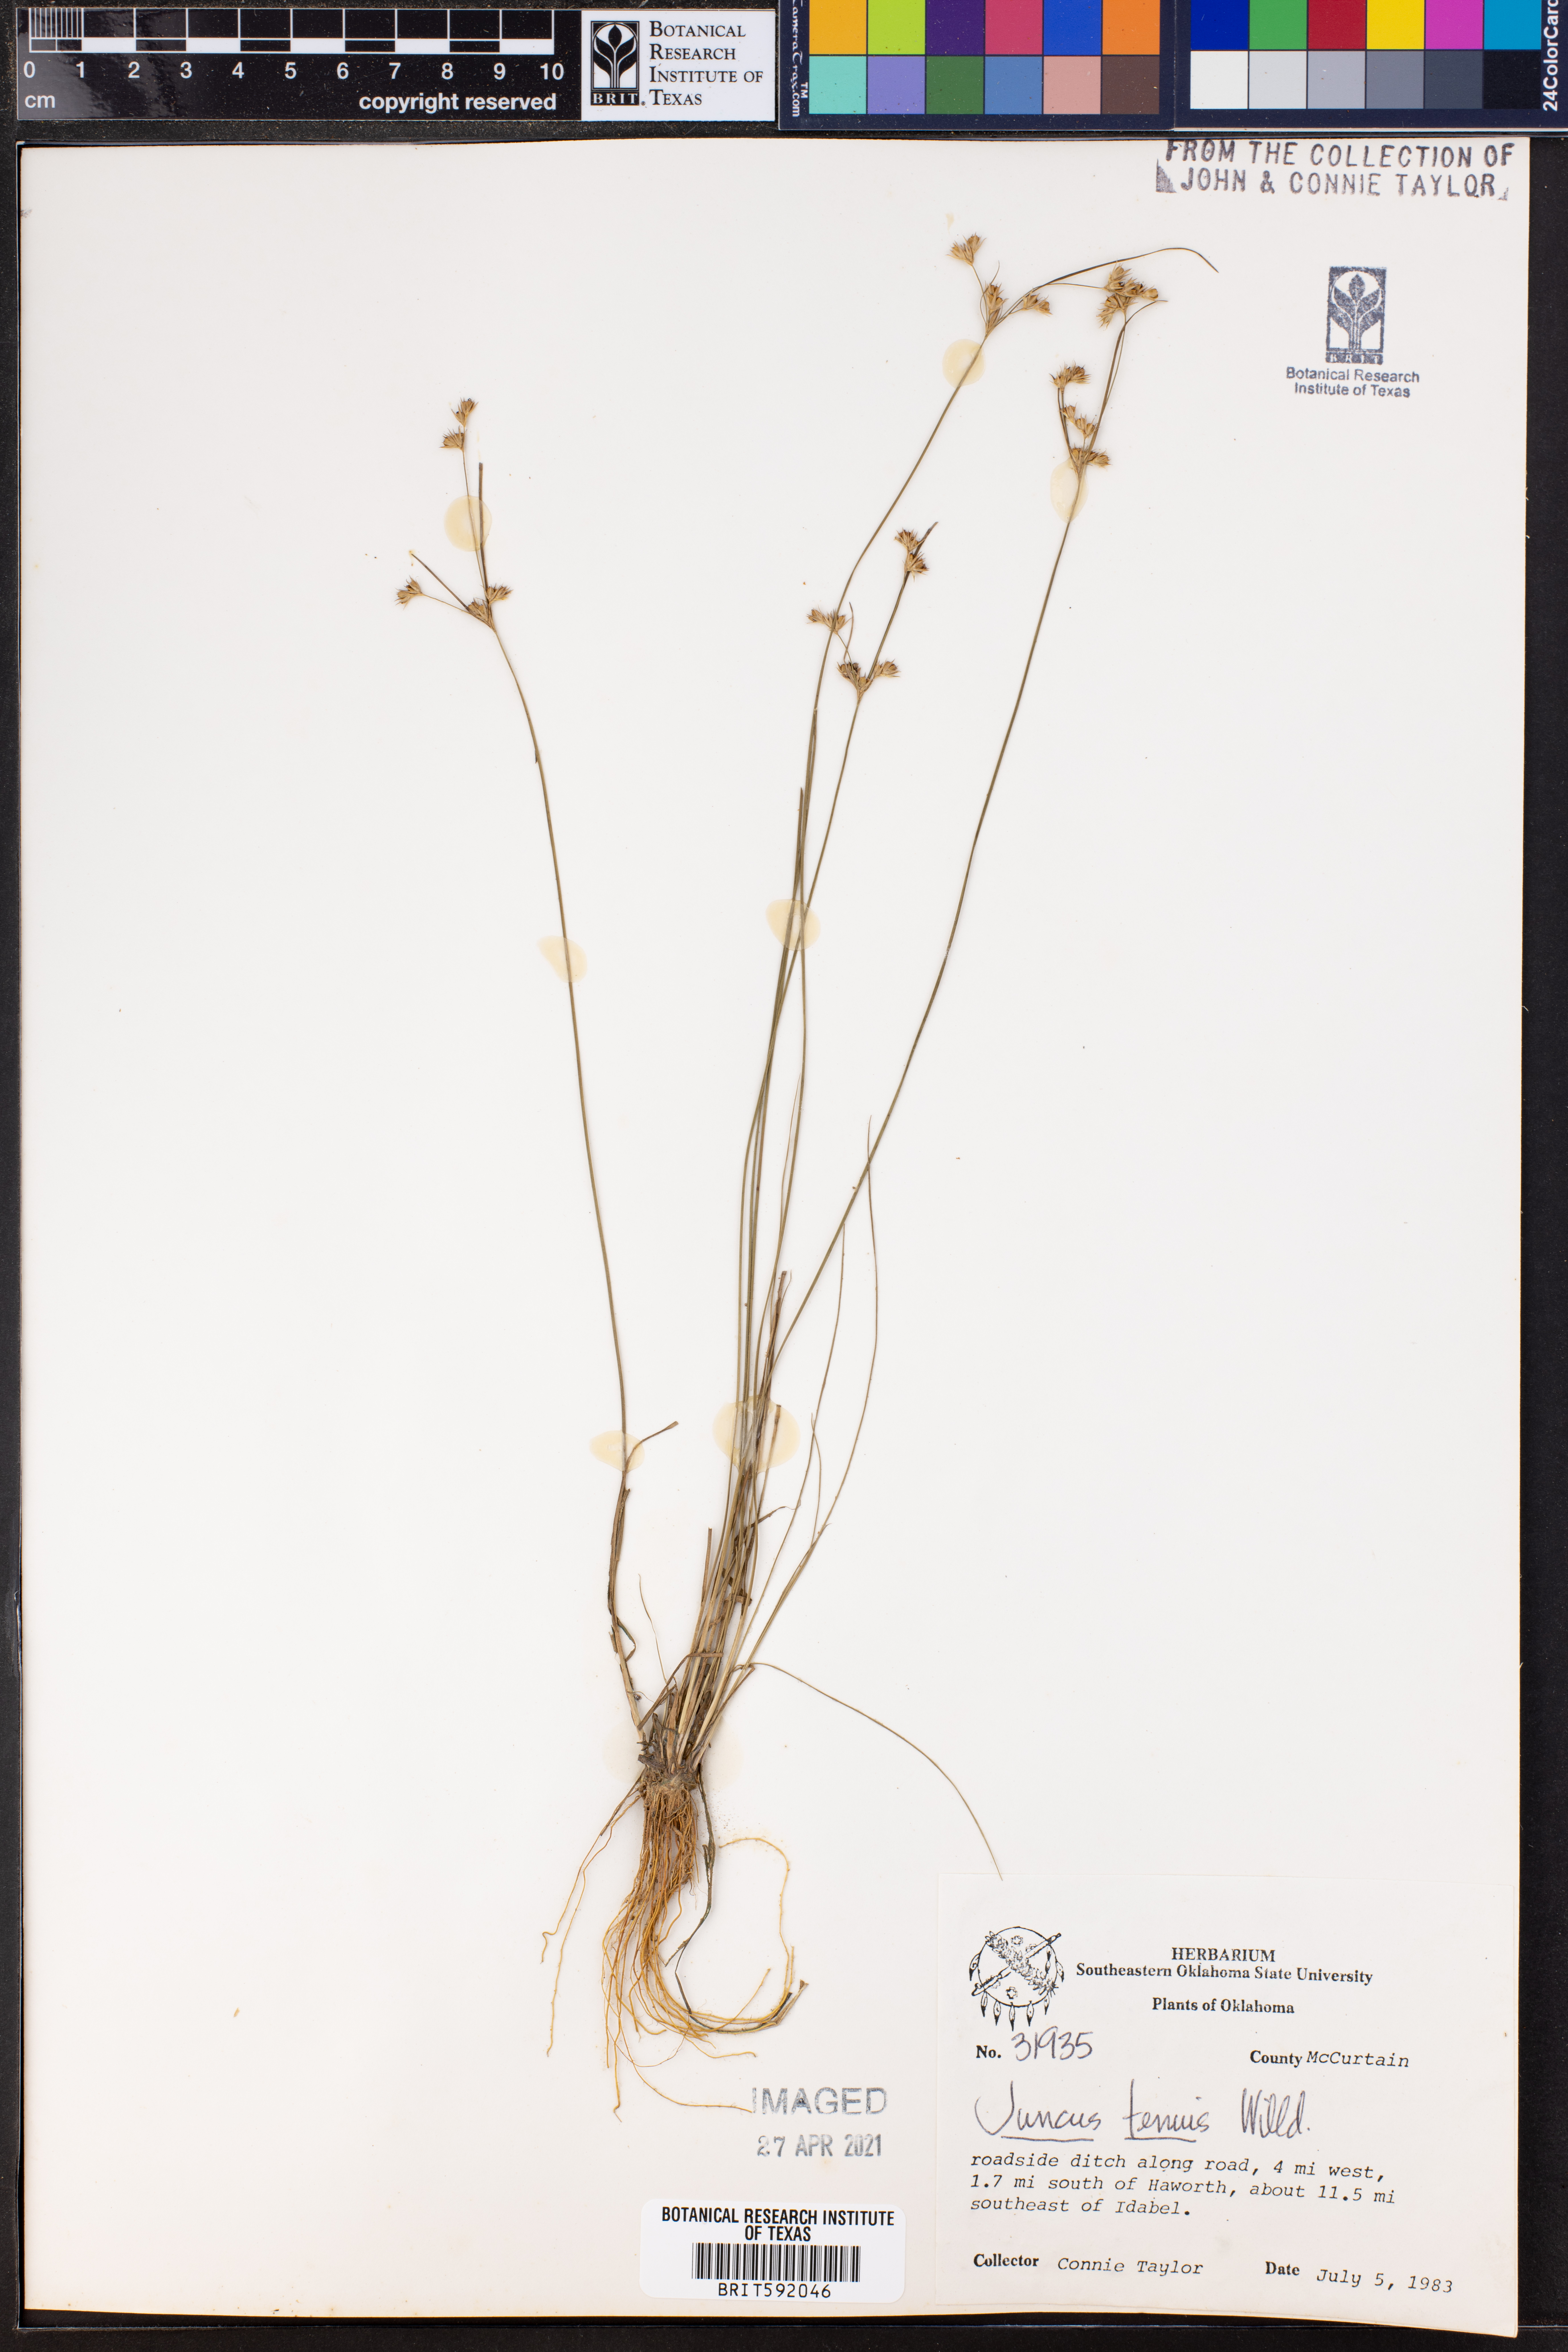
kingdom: Plantae
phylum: Tracheophyta
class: Liliopsida
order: Poales
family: Juncaceae
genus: Juncus
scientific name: Juncus tenuis
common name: Slender rush
